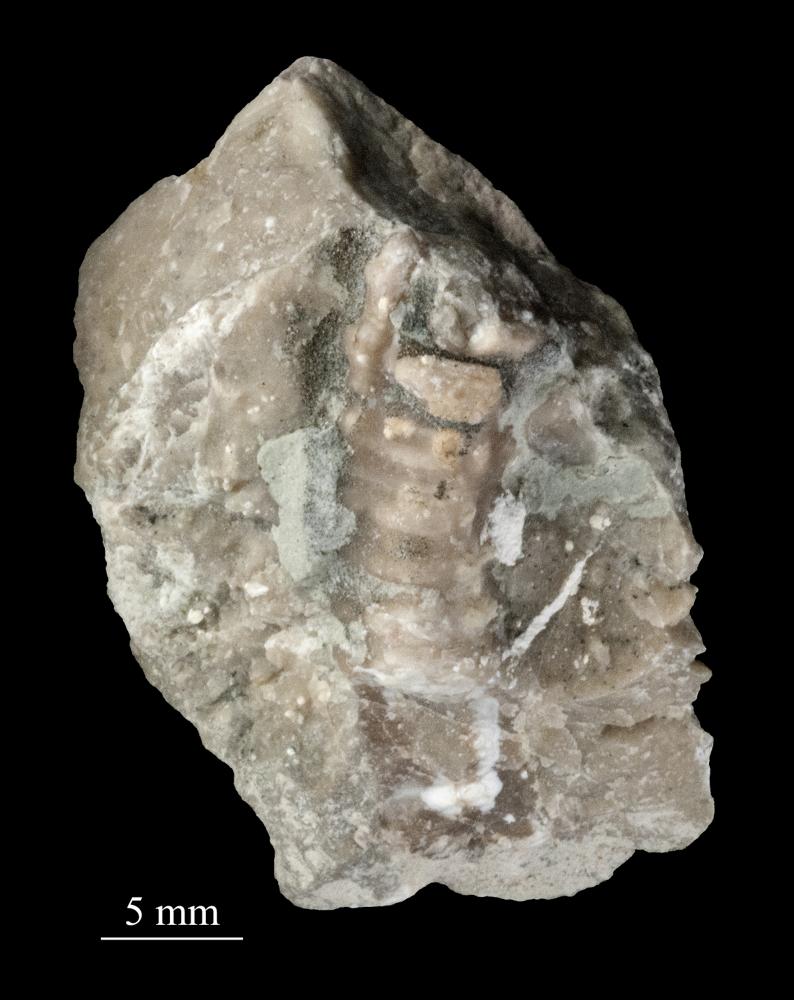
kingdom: Plantae
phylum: Tracheophyta
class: Pinopsida
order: Pinales
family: Cupressaceae
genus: Platycladus
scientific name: Platycladus
